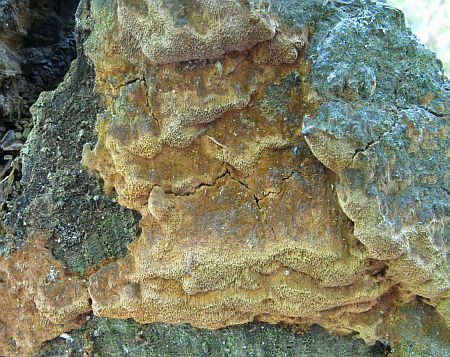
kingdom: Fungi
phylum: Basidiomycota
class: Agaricomycetes
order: Hymenochaetales
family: Hymenochaetaceae
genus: Fuscoporia
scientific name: Fuscoporia ferrea
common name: skorpe-ildporesvamp
